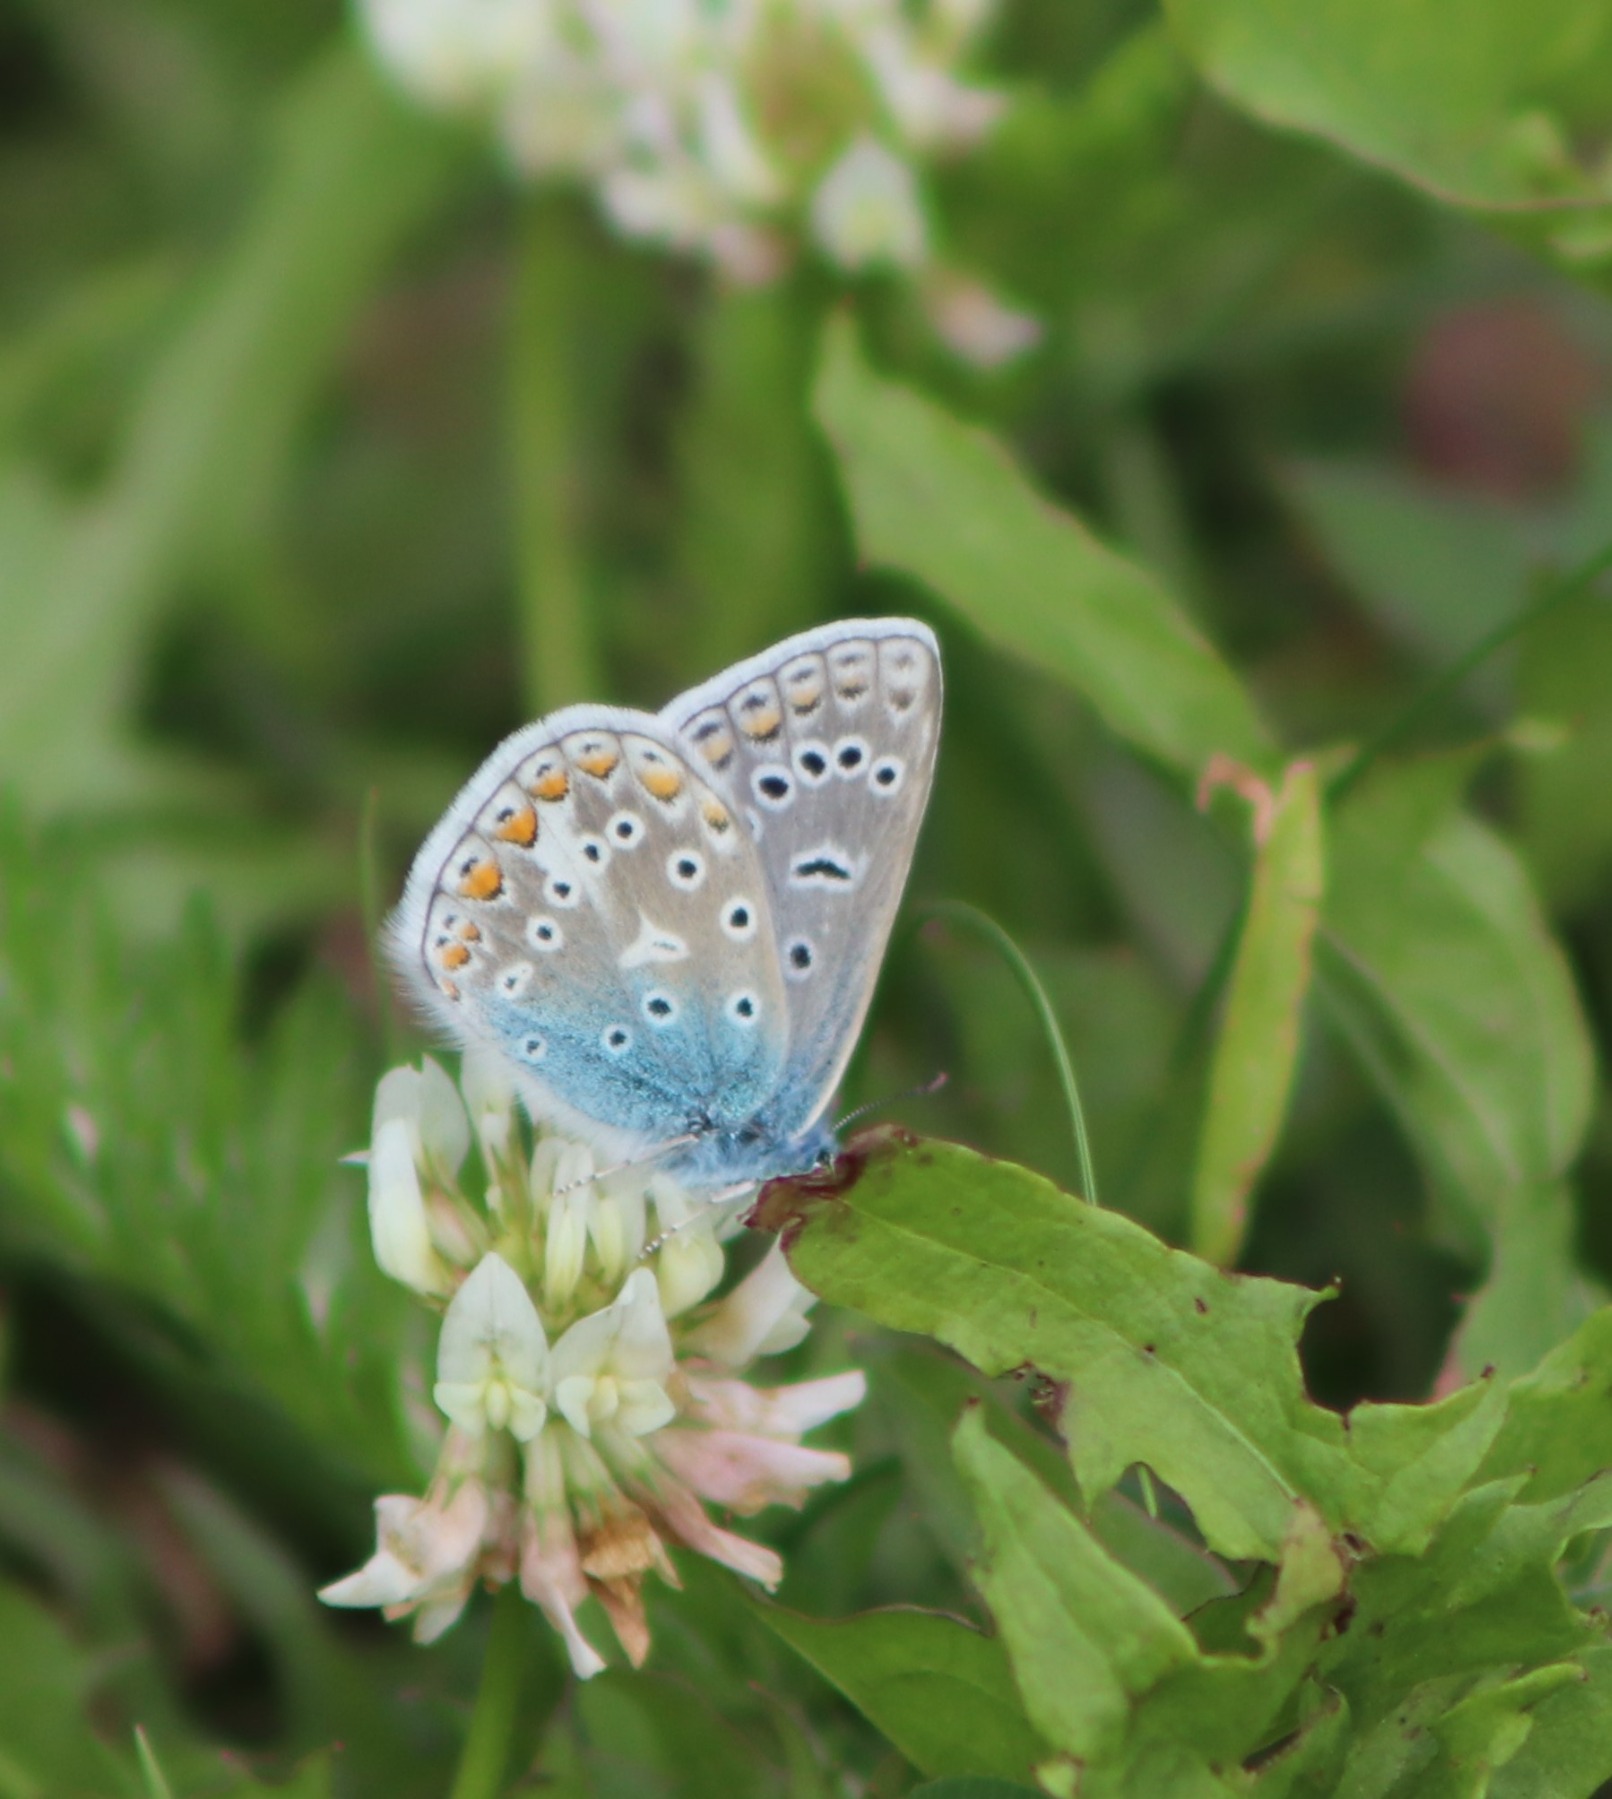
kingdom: Animalia
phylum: Arthropoda
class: Insecta
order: Lepidoptera
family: Lycaenidae
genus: Polyommatus
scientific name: Polyommatus icarus
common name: Almindelig blåfugl
